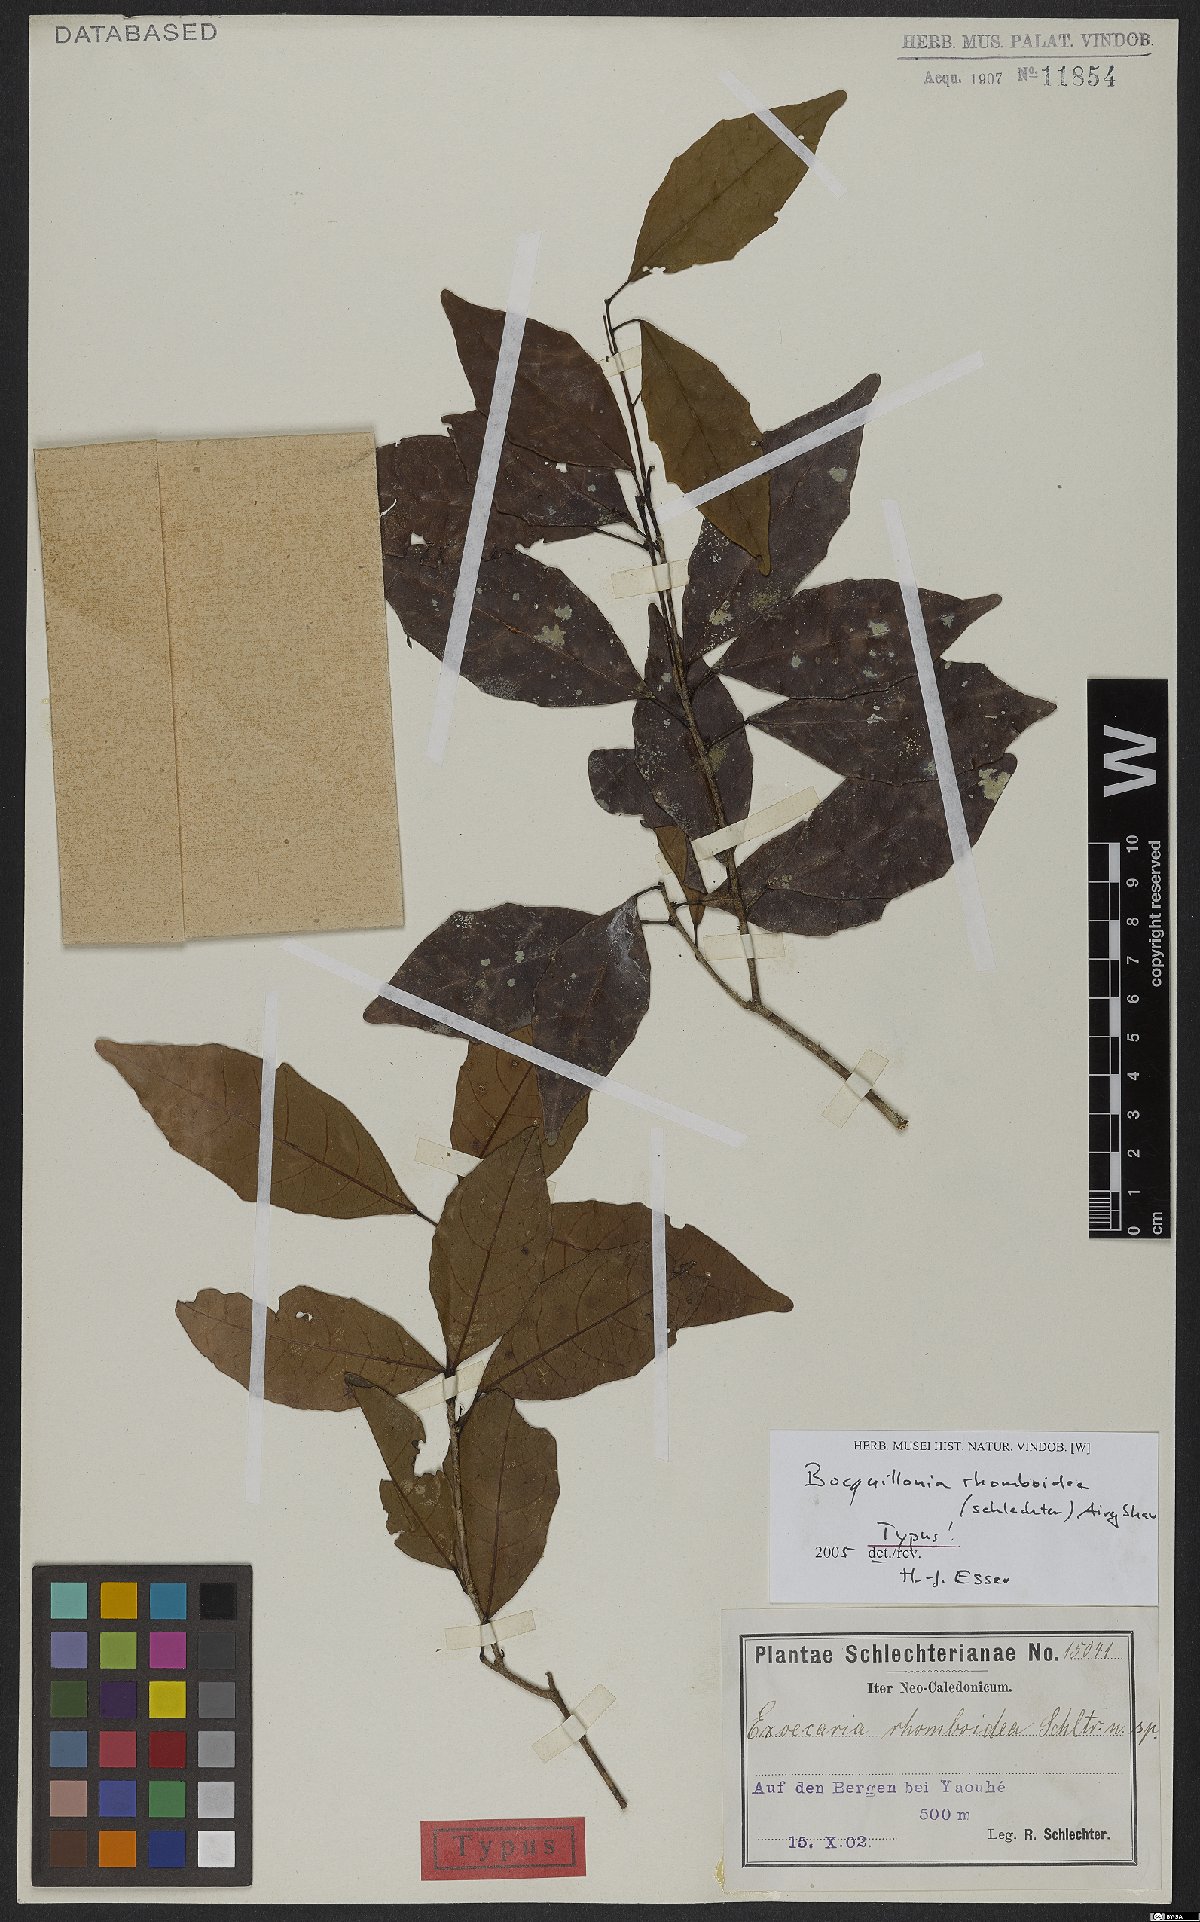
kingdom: Plantae
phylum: Tracheophyta
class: Magnoliopsida
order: Malpighiales
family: Euphorbiaceae
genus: Bocquillonia
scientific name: Bocquillonia rhomboidea
